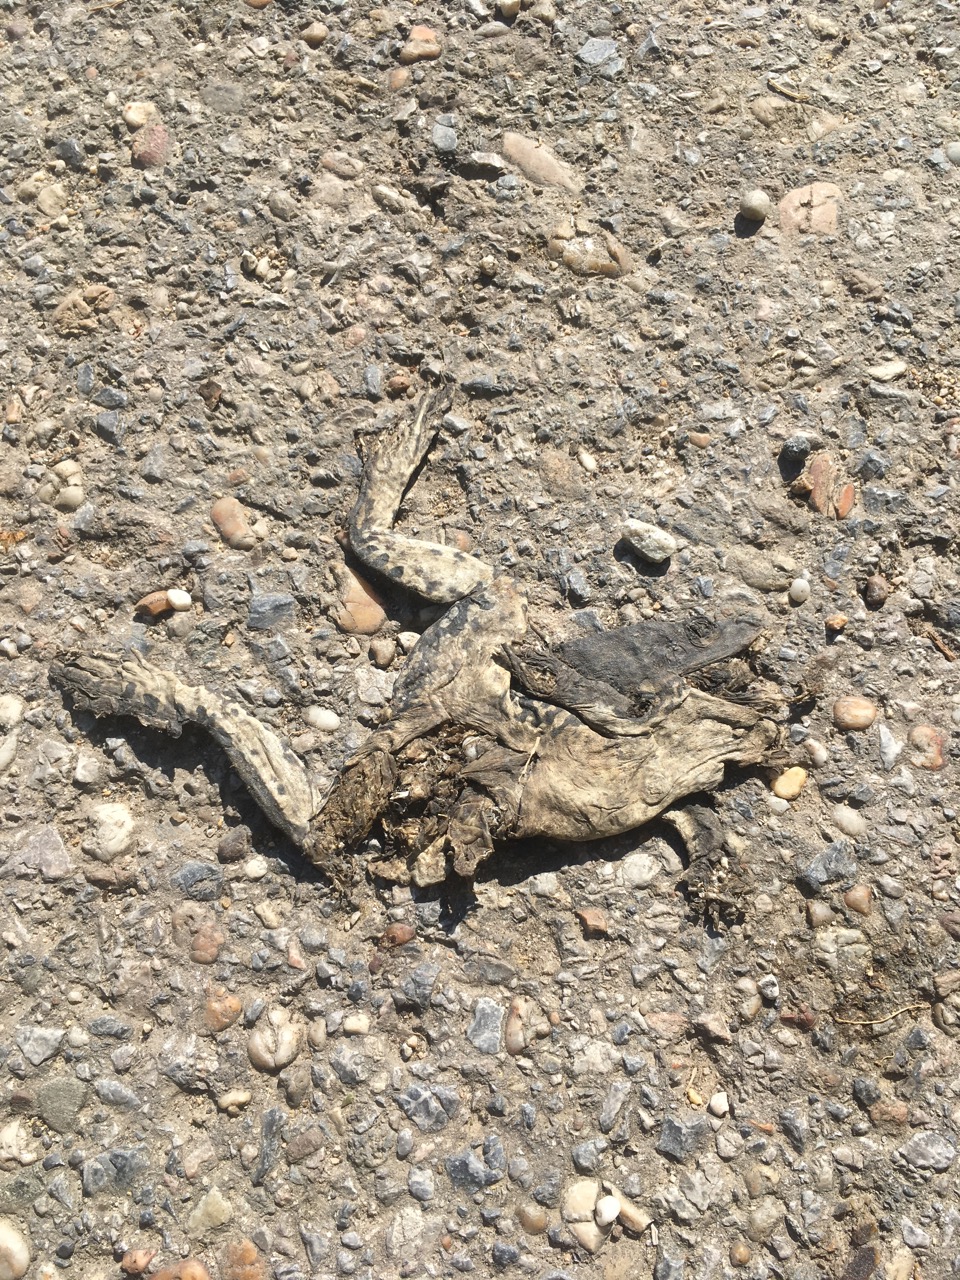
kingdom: Animalia
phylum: Chordata
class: Amphibia
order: Anura
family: Bufonidae
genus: Bufotes
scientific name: Bufotes viridis
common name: European green toad
